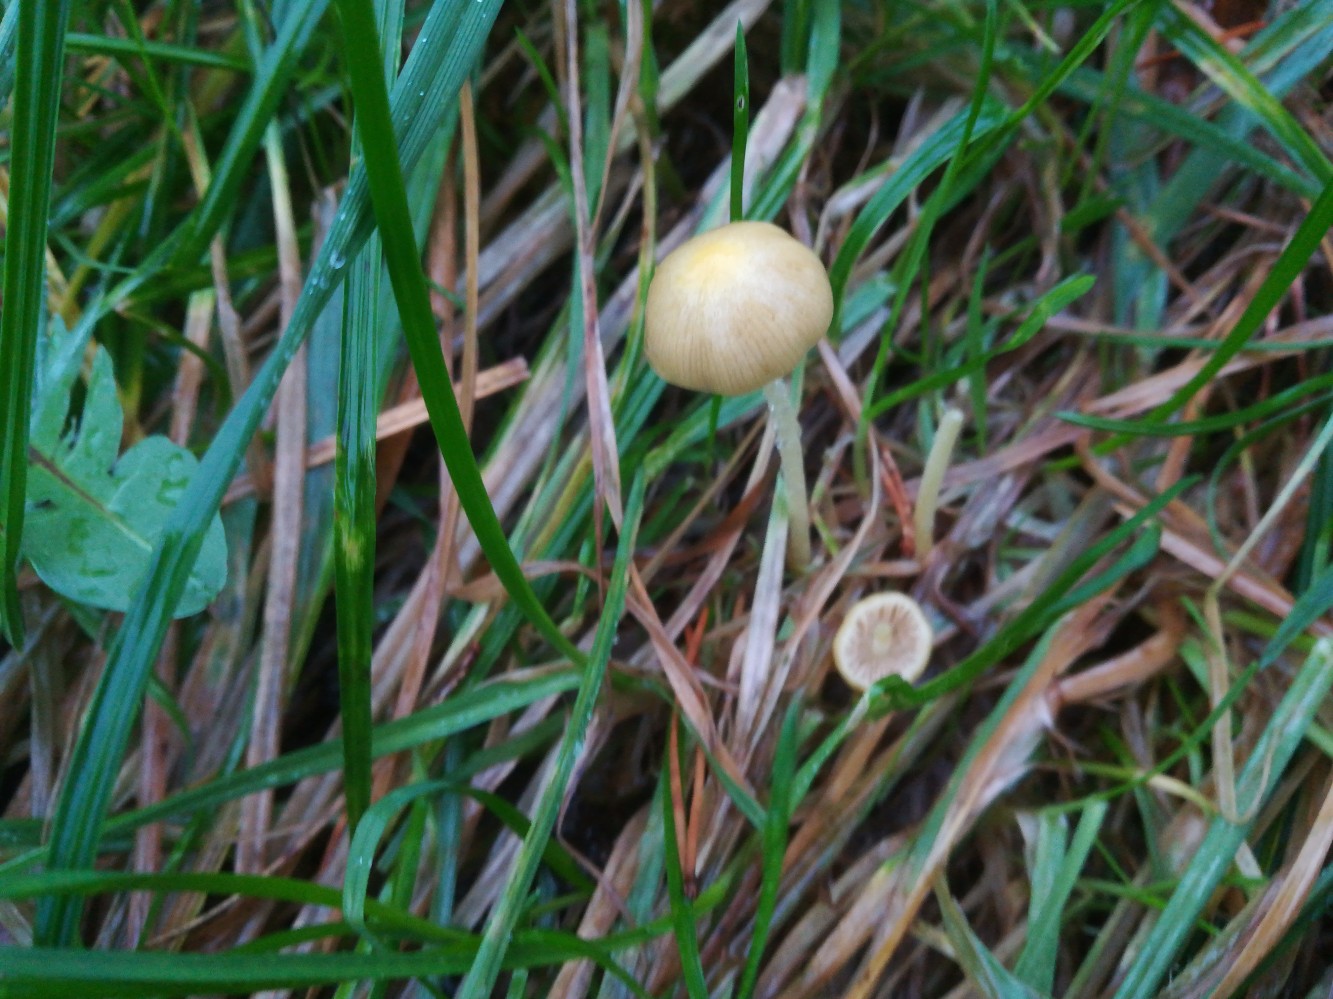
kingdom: Fungi
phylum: Basidiomycota
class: Agaricomycetes
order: Agaricales
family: Bolbitiaceae
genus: Bolbitius
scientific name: Bolbitius titubans
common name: almindelig gulhat
